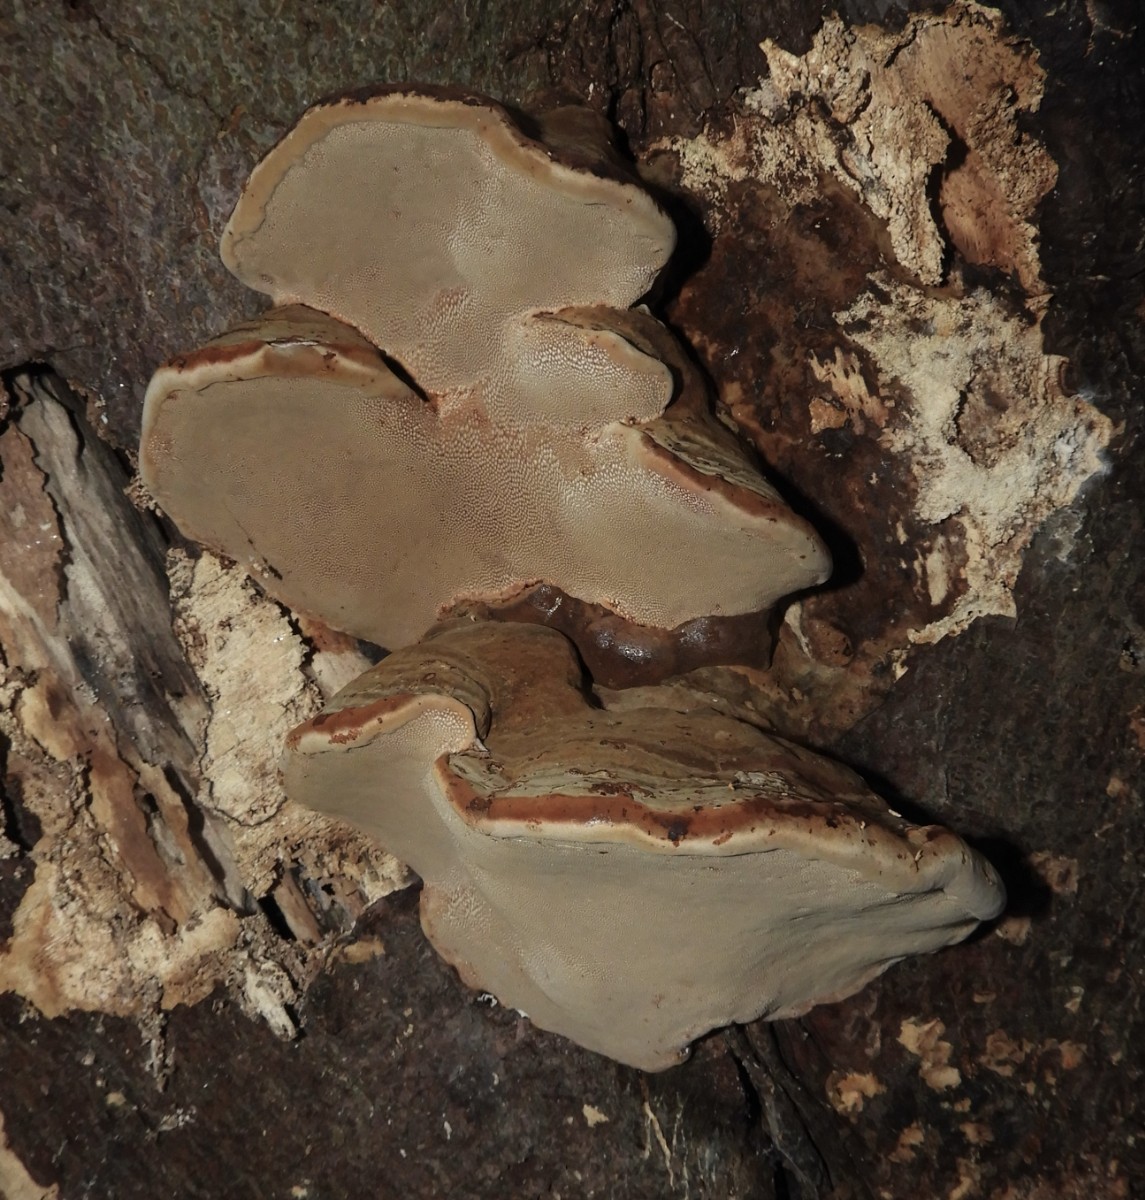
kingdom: Fungi
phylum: Basidiomycota
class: Agaricomycetes
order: Polyporales
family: Polyporaceae
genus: Fomes
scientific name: Fomes fomentarius
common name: tøndersvamp
